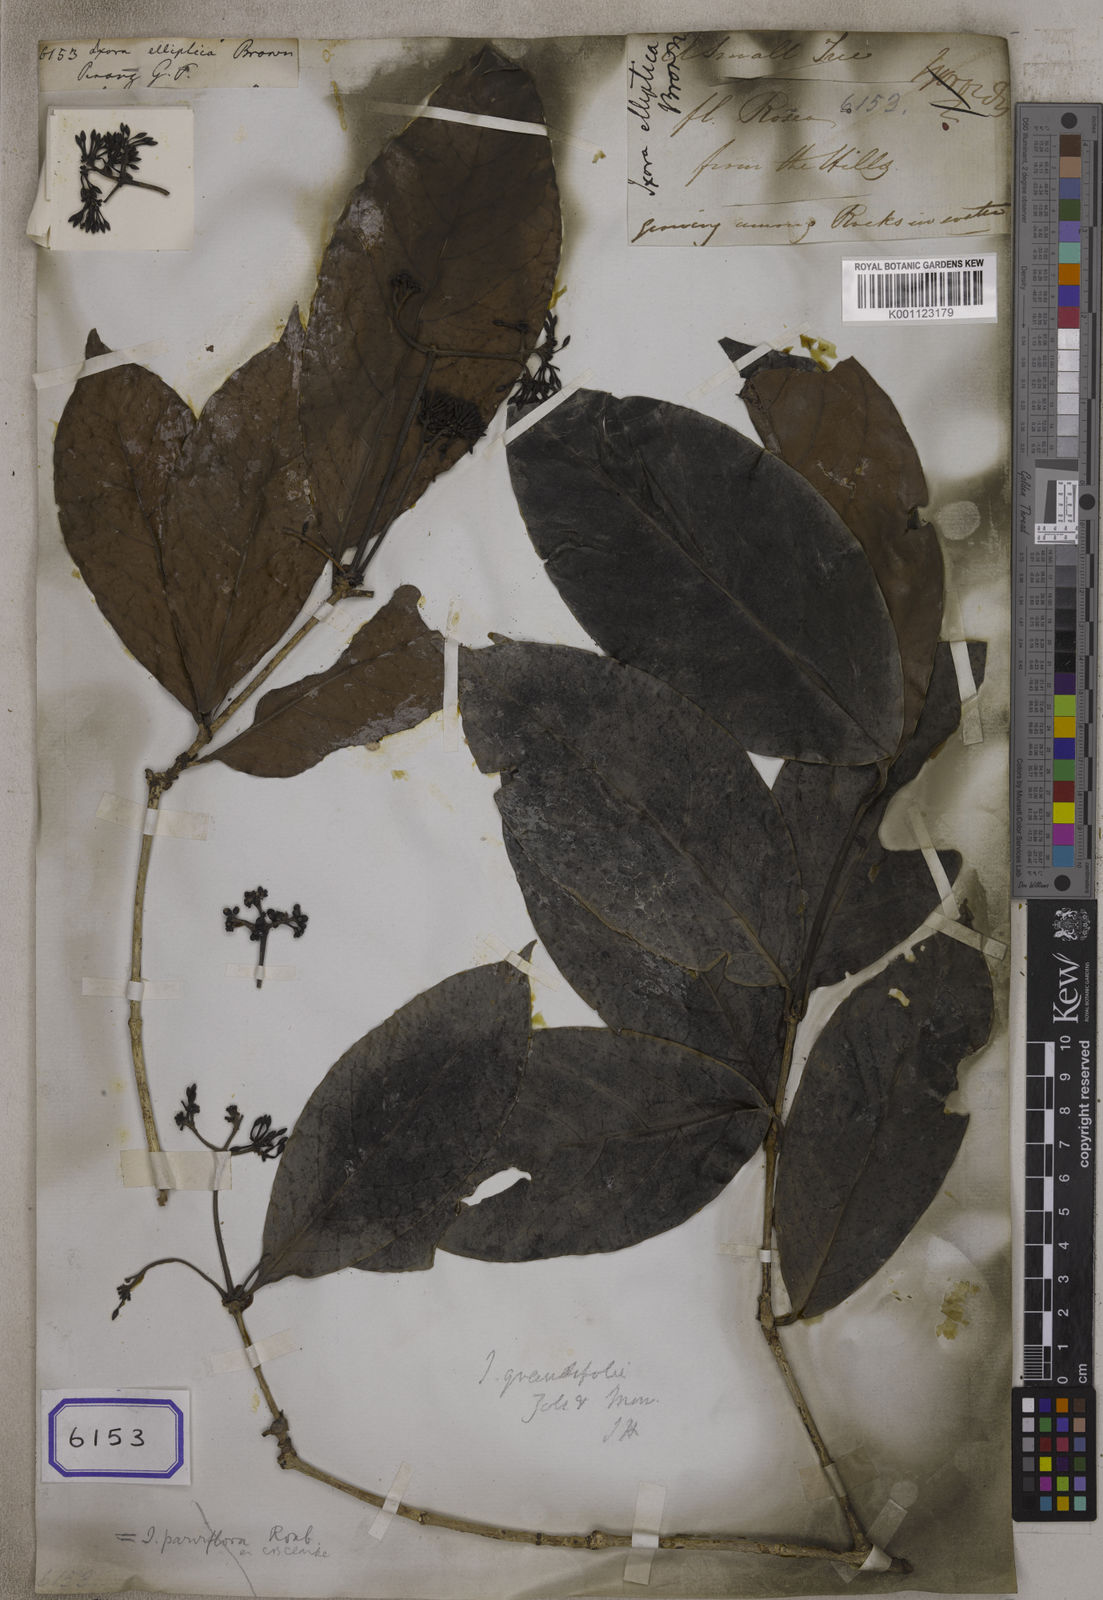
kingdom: Plantae
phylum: Tracheophyta
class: Magnoliopsida
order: Gentianales
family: Rubiaceae
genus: Ixora
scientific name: Ixora
